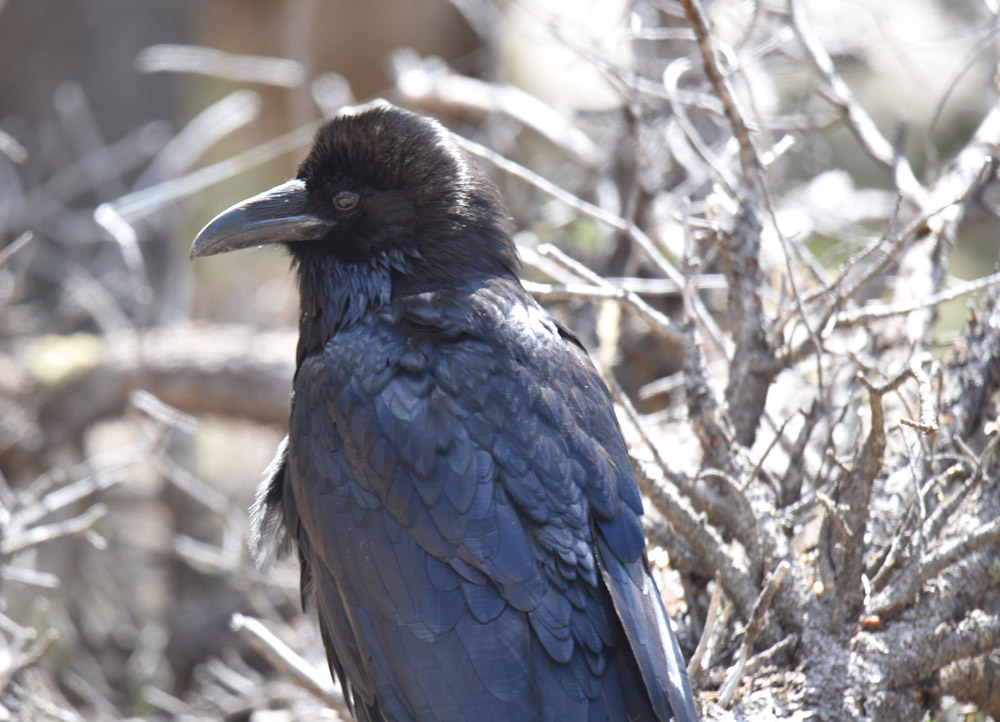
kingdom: Animalia
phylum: Chordata
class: Aves
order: Passeriformes
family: Corvidae
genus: Corvus
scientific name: Corvus corax
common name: Common raven
